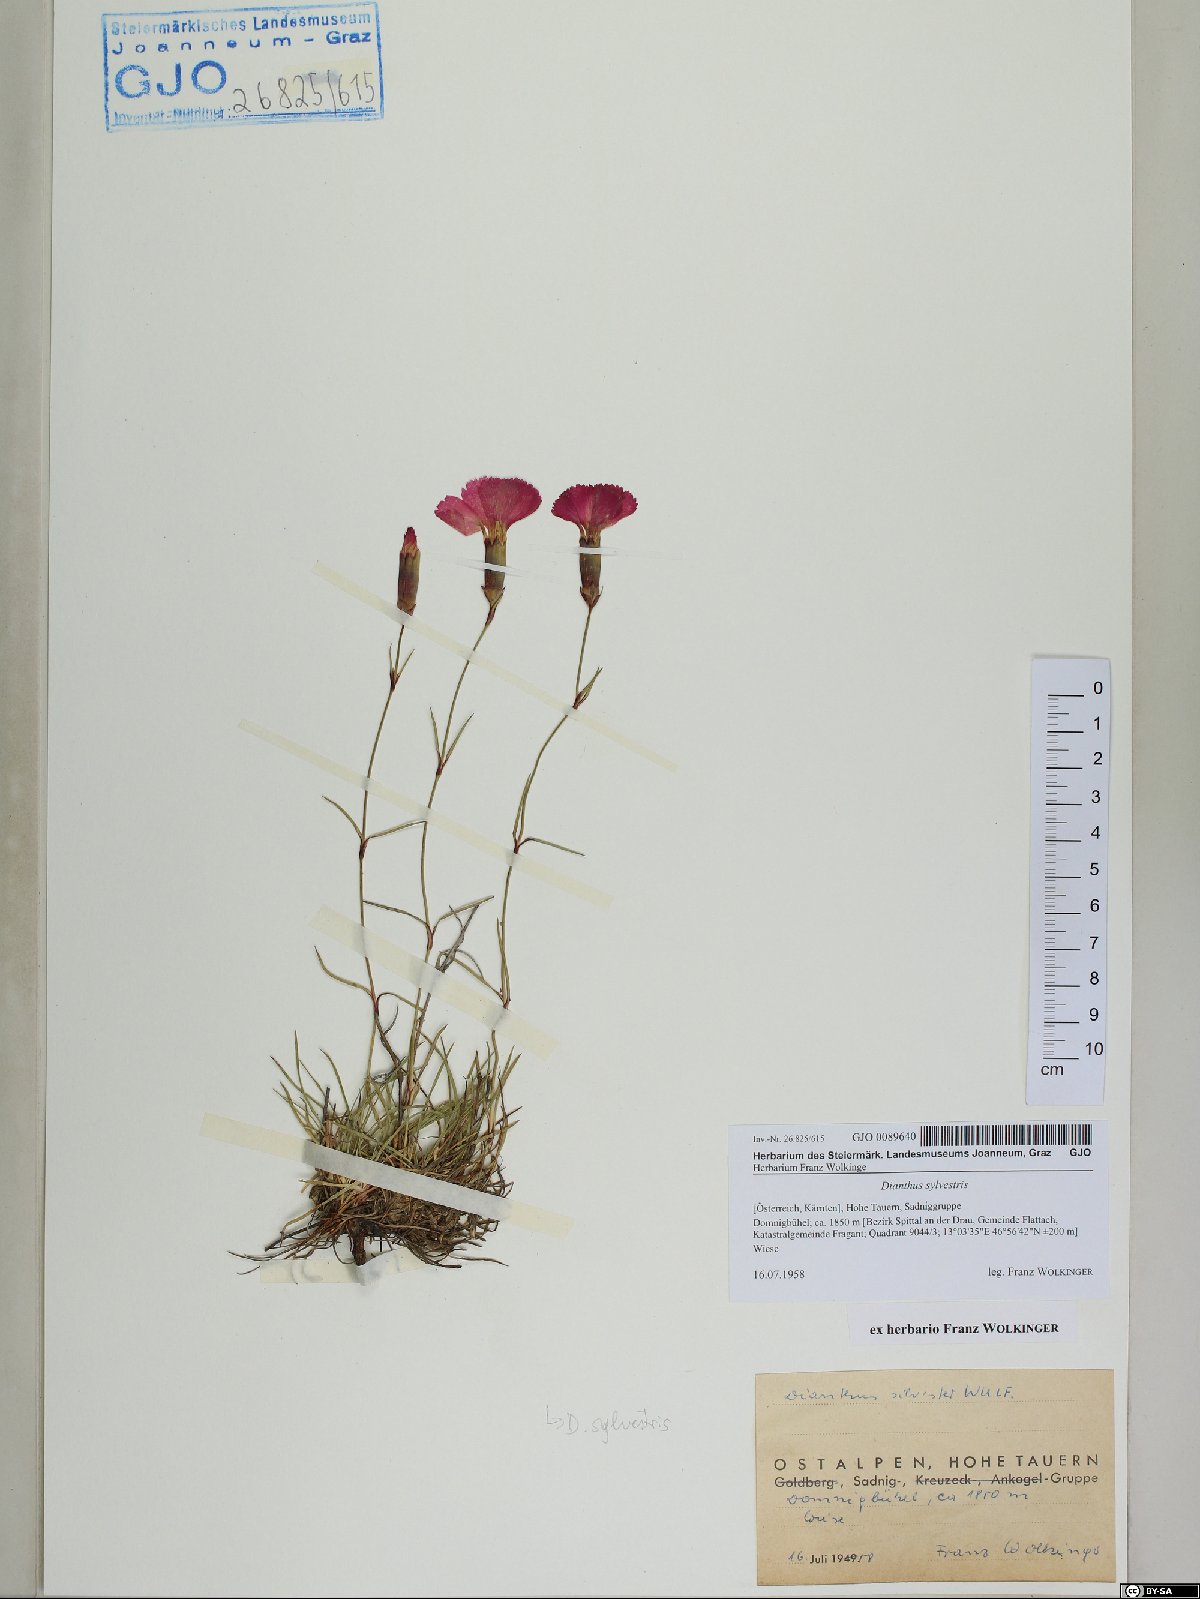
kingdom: Plantae
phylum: Tracheophyta
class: Magnoliopsida
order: Caryophyllales
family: Caryophyllaceae
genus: Dianthus
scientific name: Dianthus sylvestris
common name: Wood pink
